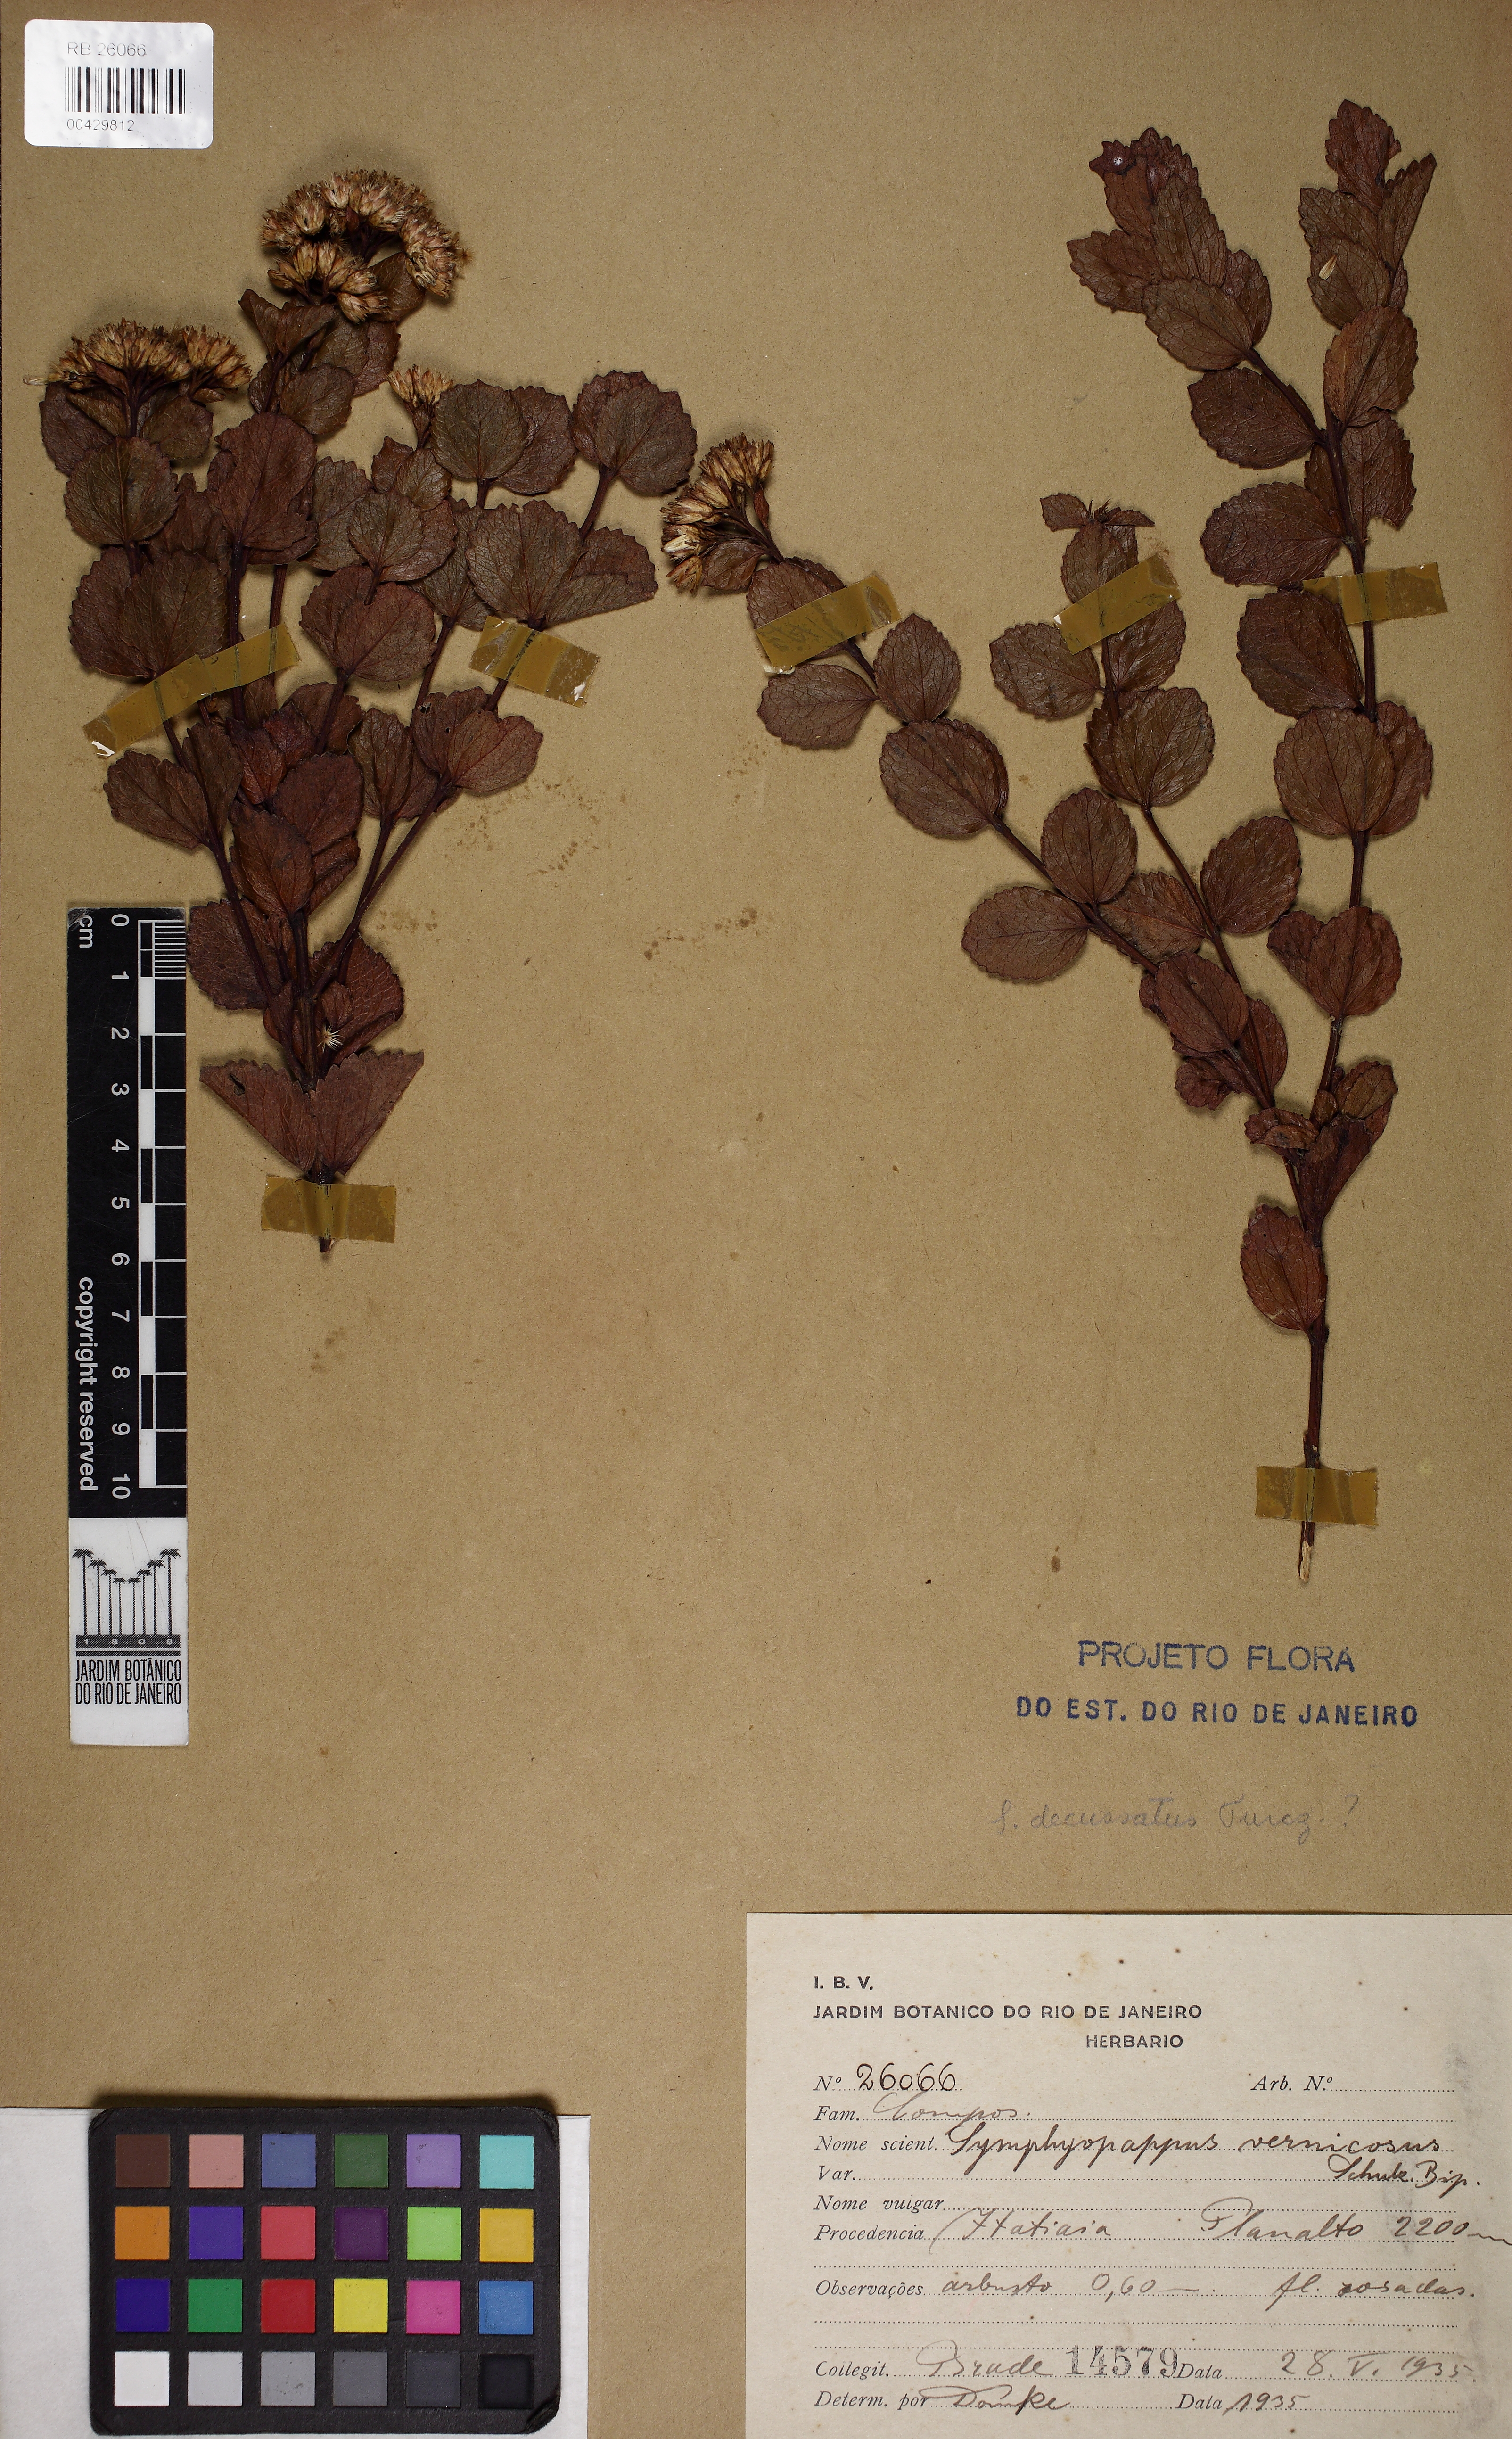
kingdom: Plantae
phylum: Tracheophyta
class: Magnoliopsida
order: Asterales
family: Asteraceae
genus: Symphyopappus
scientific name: Symphyopappus decussatus
